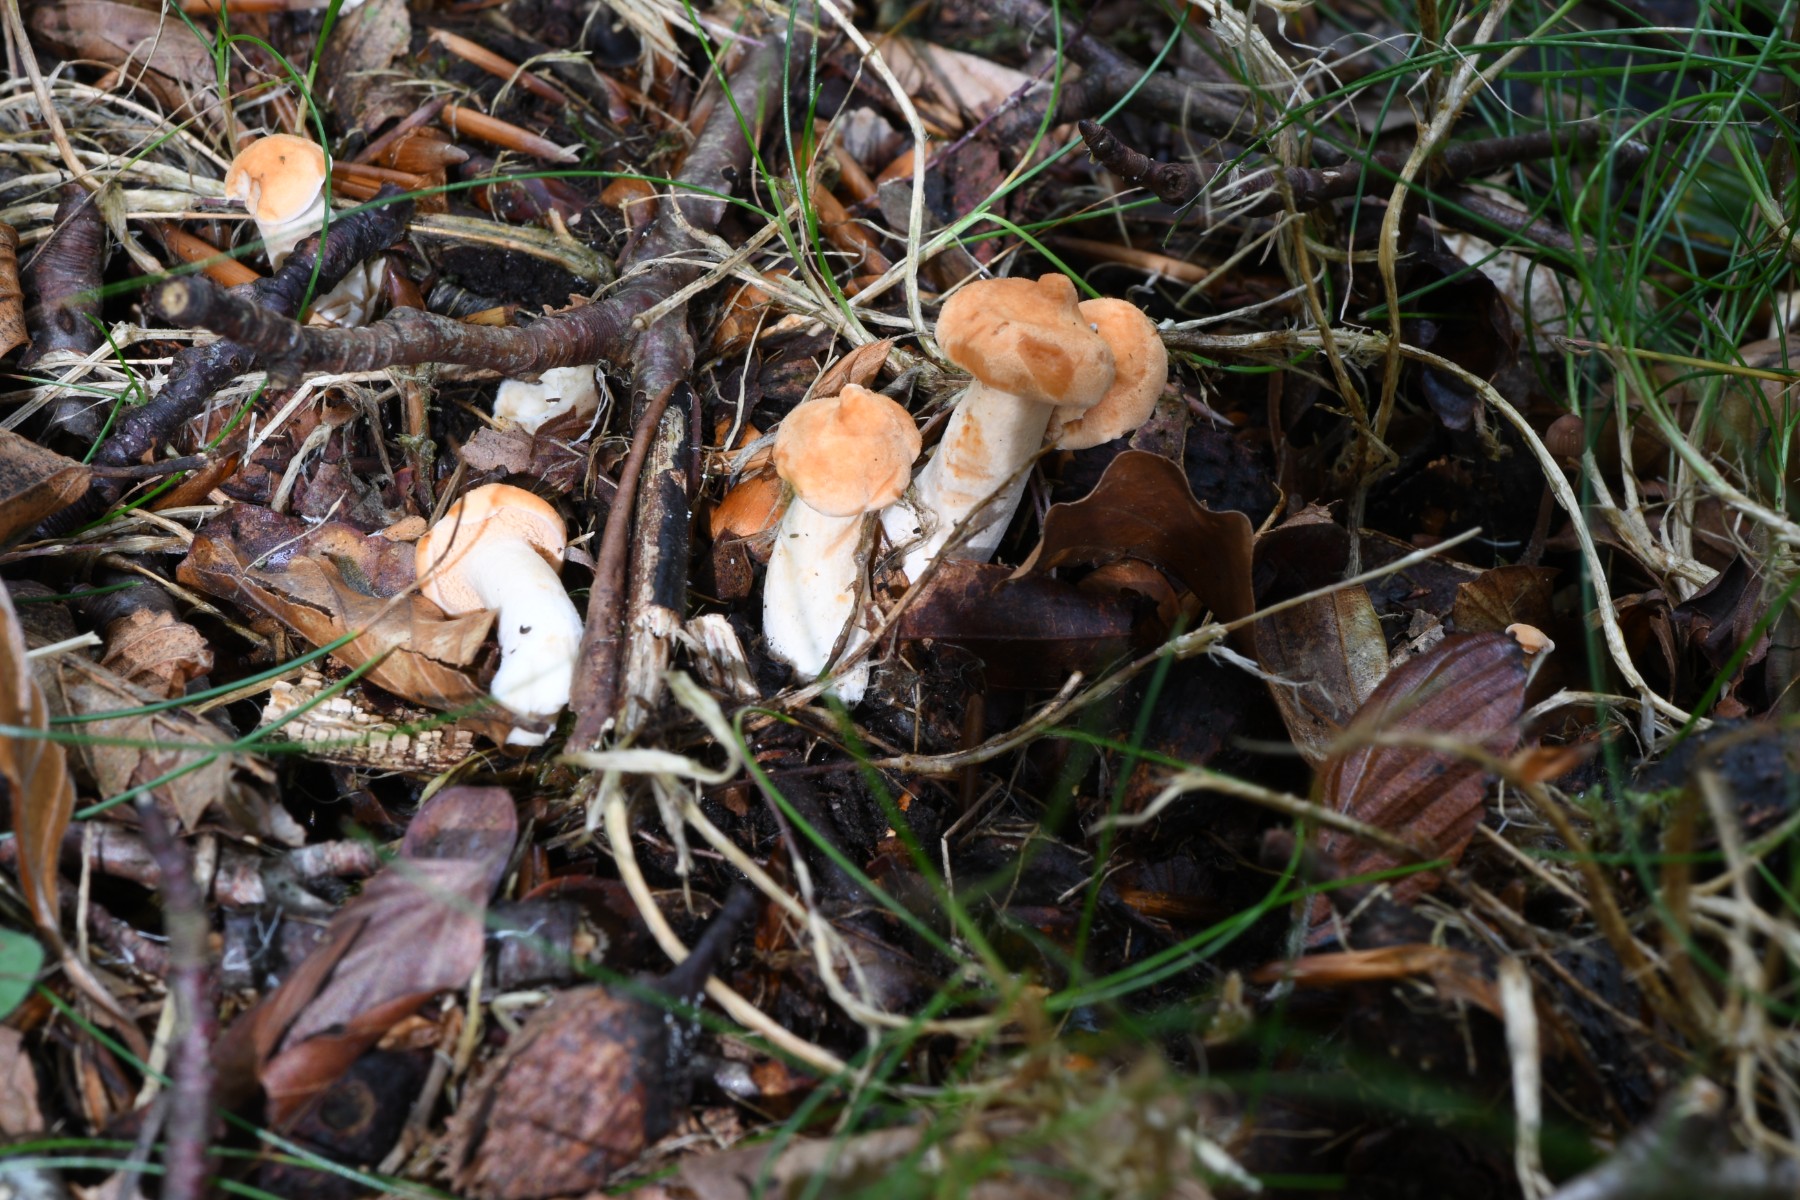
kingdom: Fungi
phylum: Basidiomycota
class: Agaricomycetes
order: Cantharellales
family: Hydnaceae
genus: Hydnum
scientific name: Hydnum
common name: pigsvamp
